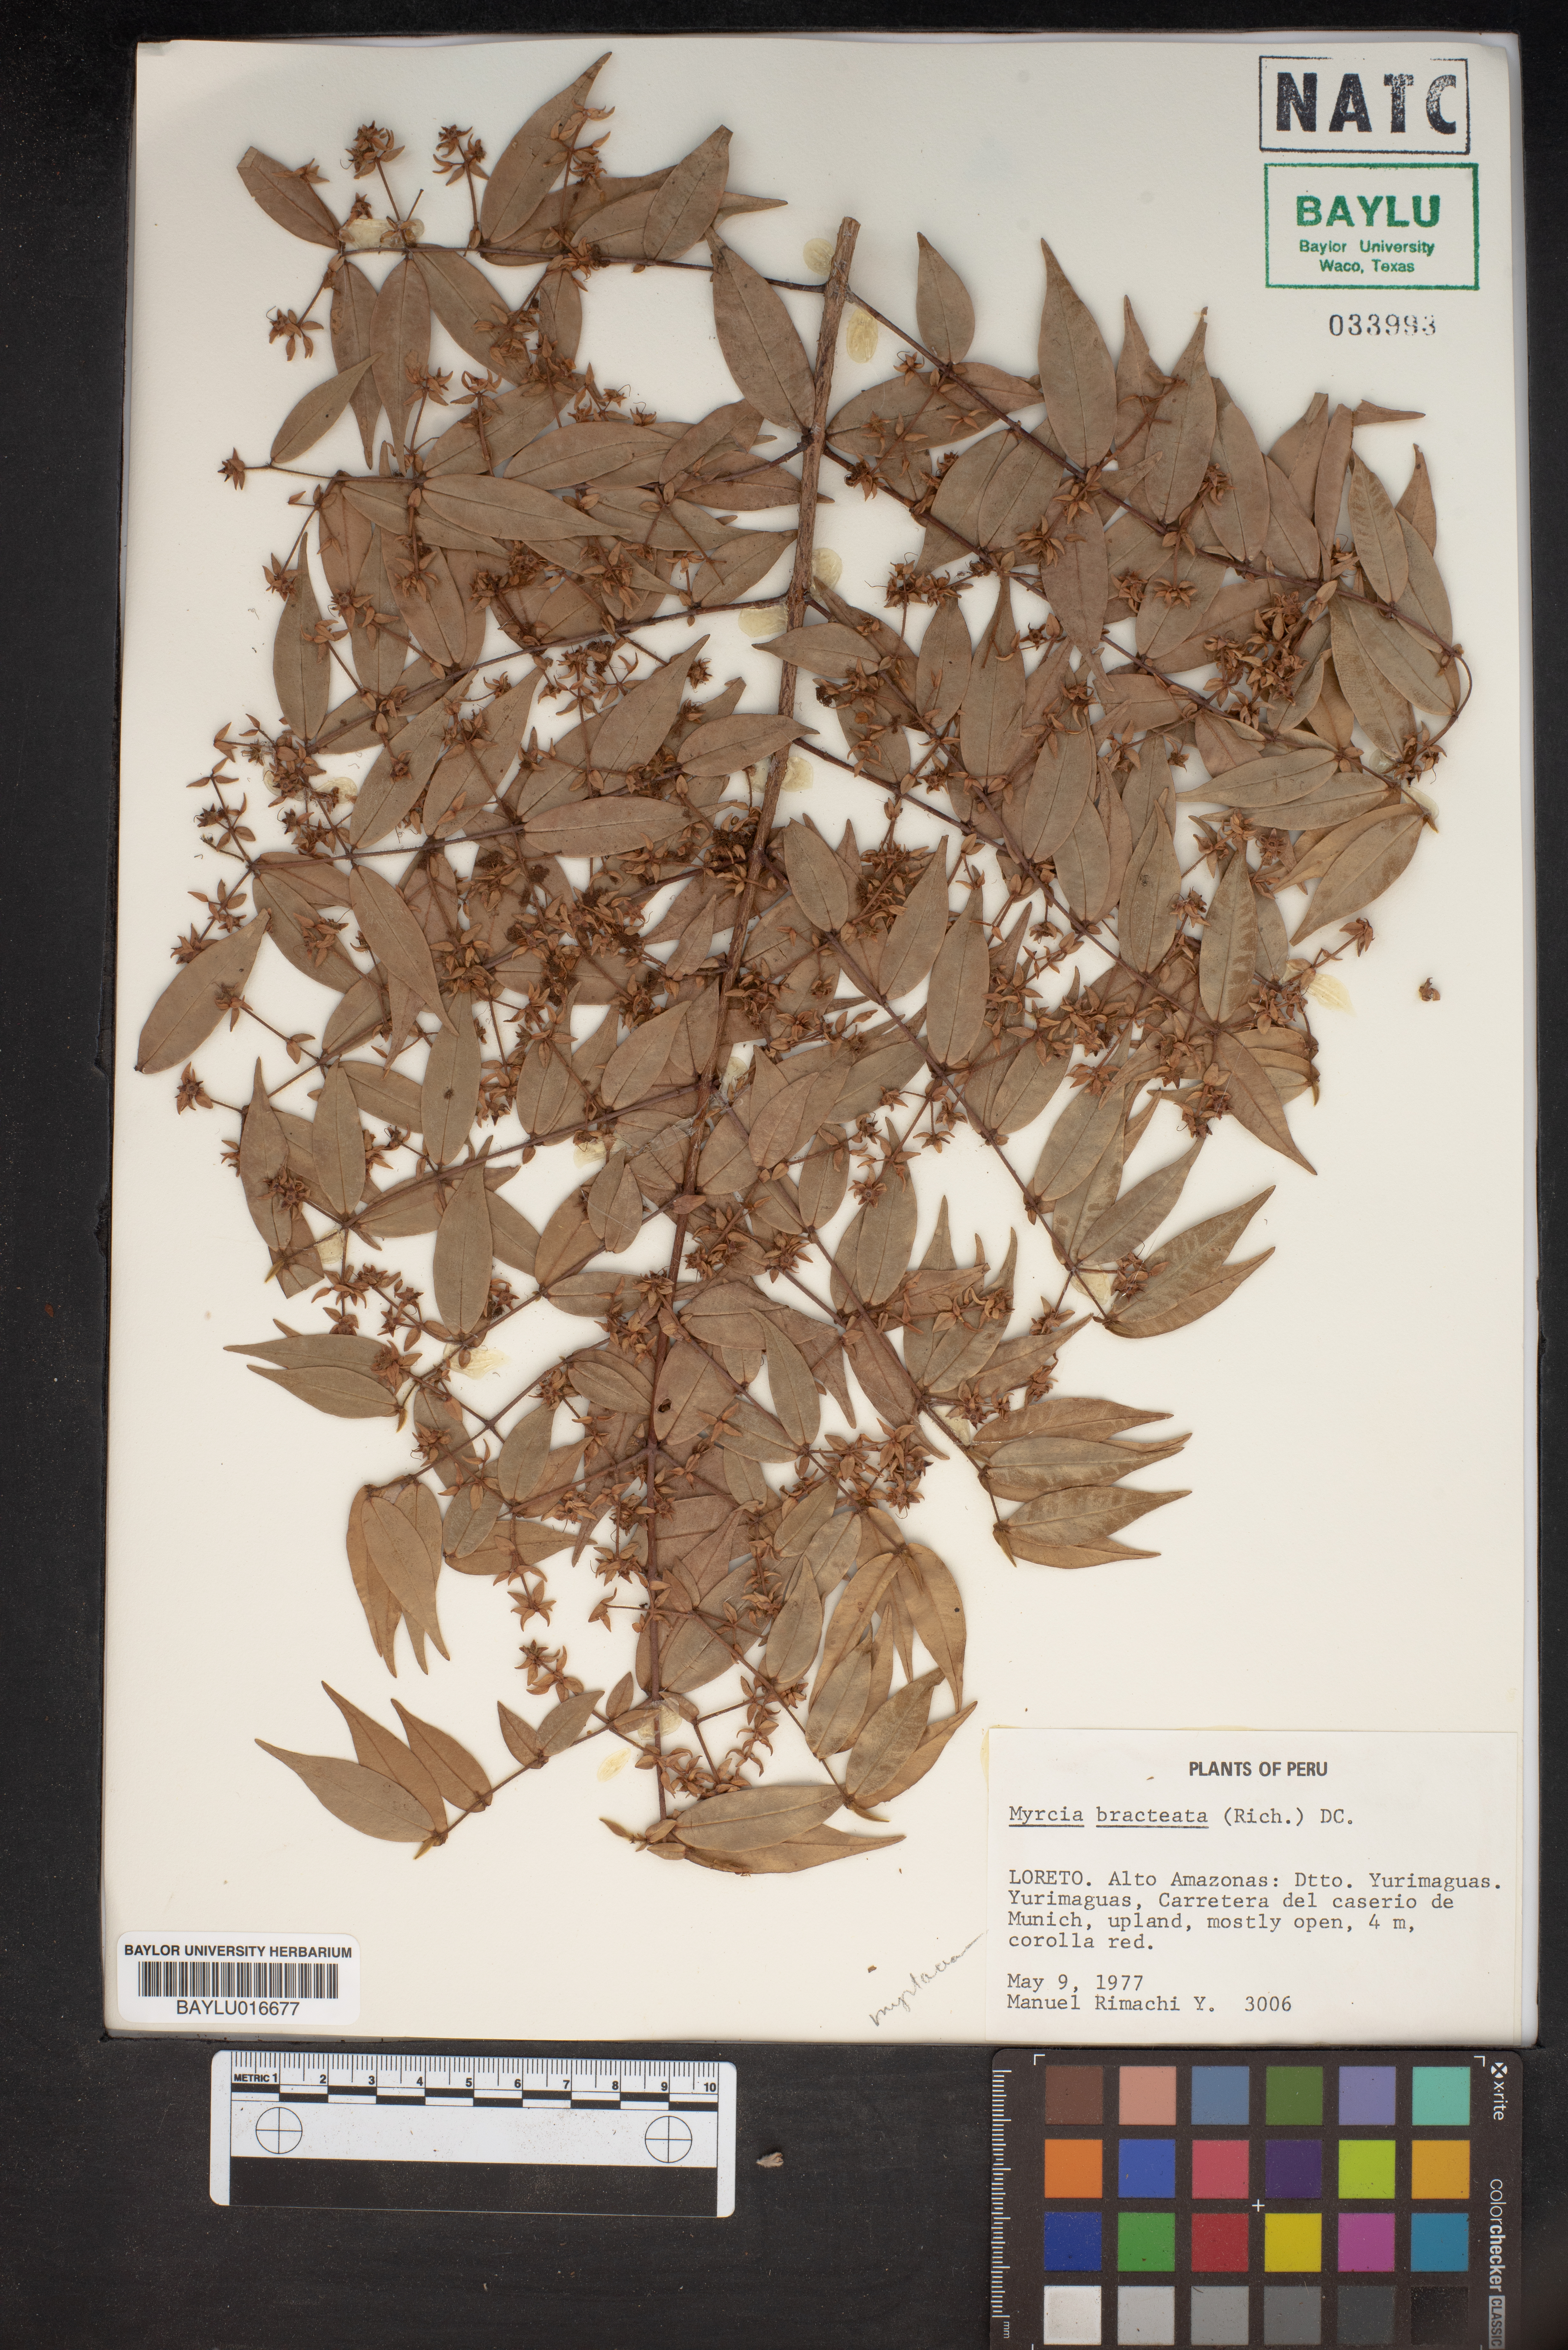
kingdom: Plantae
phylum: Tracheophyta
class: Magnoliopsida
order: Myrtales
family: Myrtaceae
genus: Myrcia
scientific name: Myrcia bracteata
